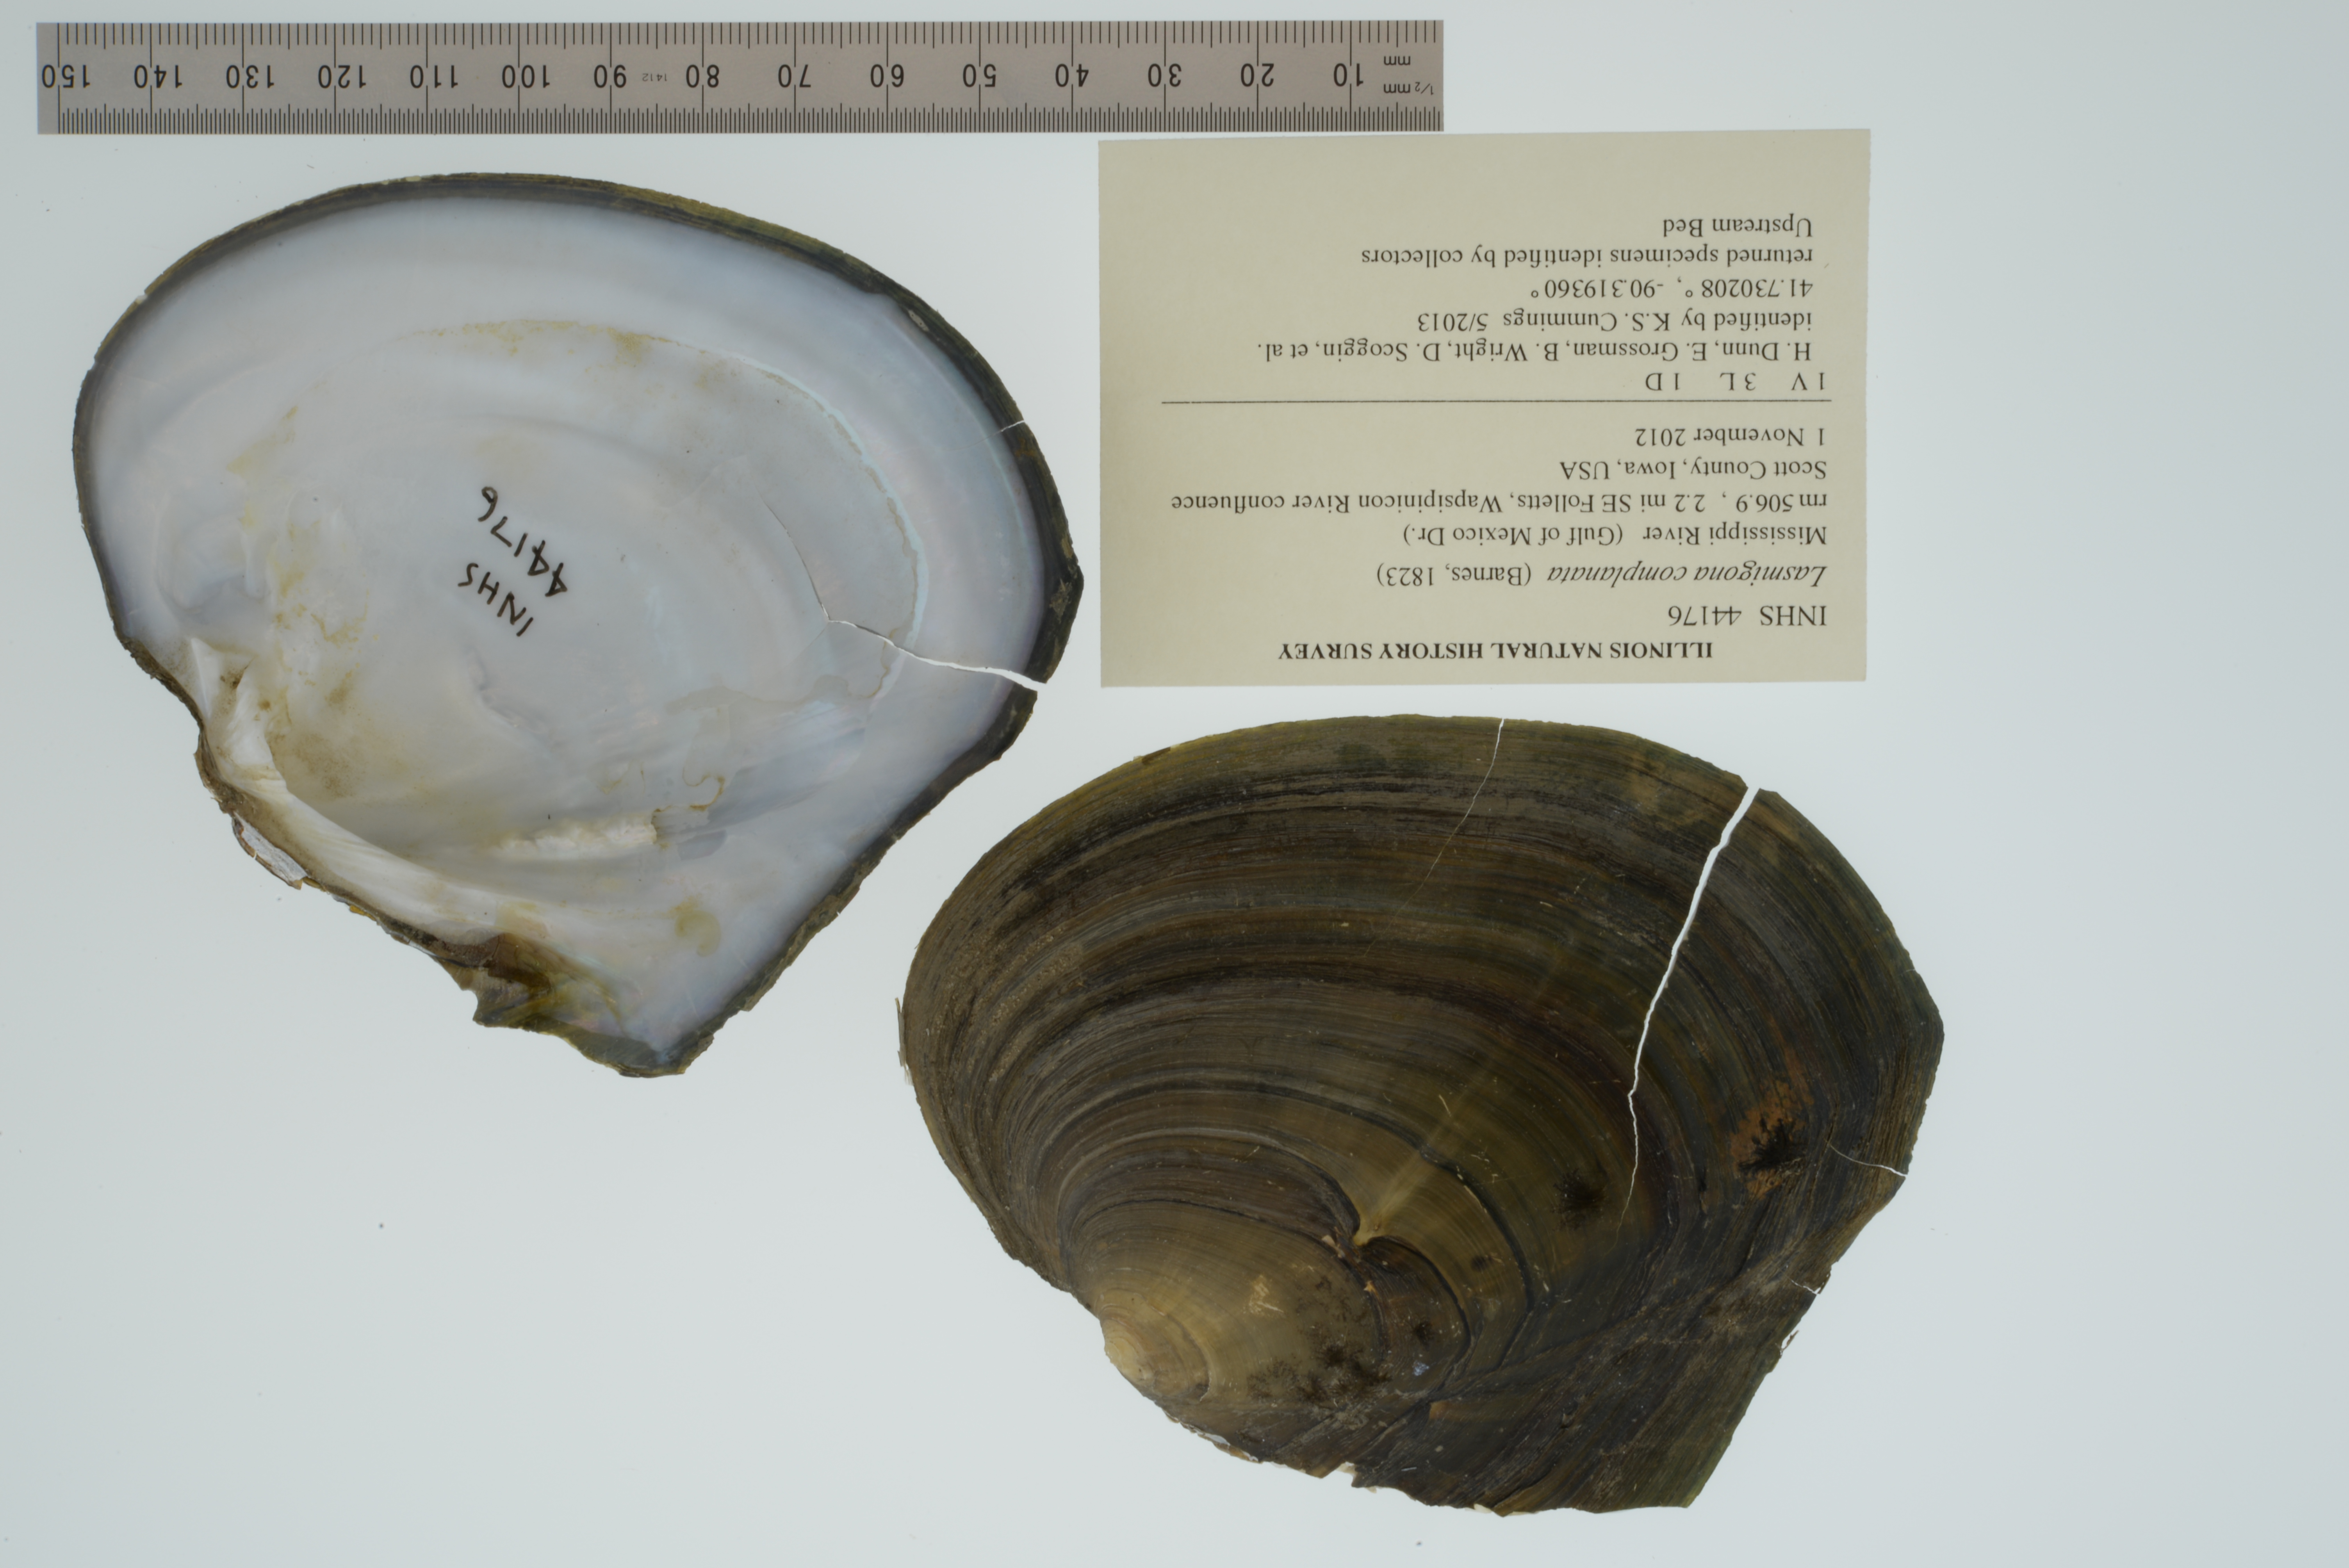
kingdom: Animalia
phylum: Mollusca
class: Bivalvia
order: Unionida
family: Unionidae
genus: Lasmigona
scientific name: Lasmigona complanata
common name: White heelsplitter
